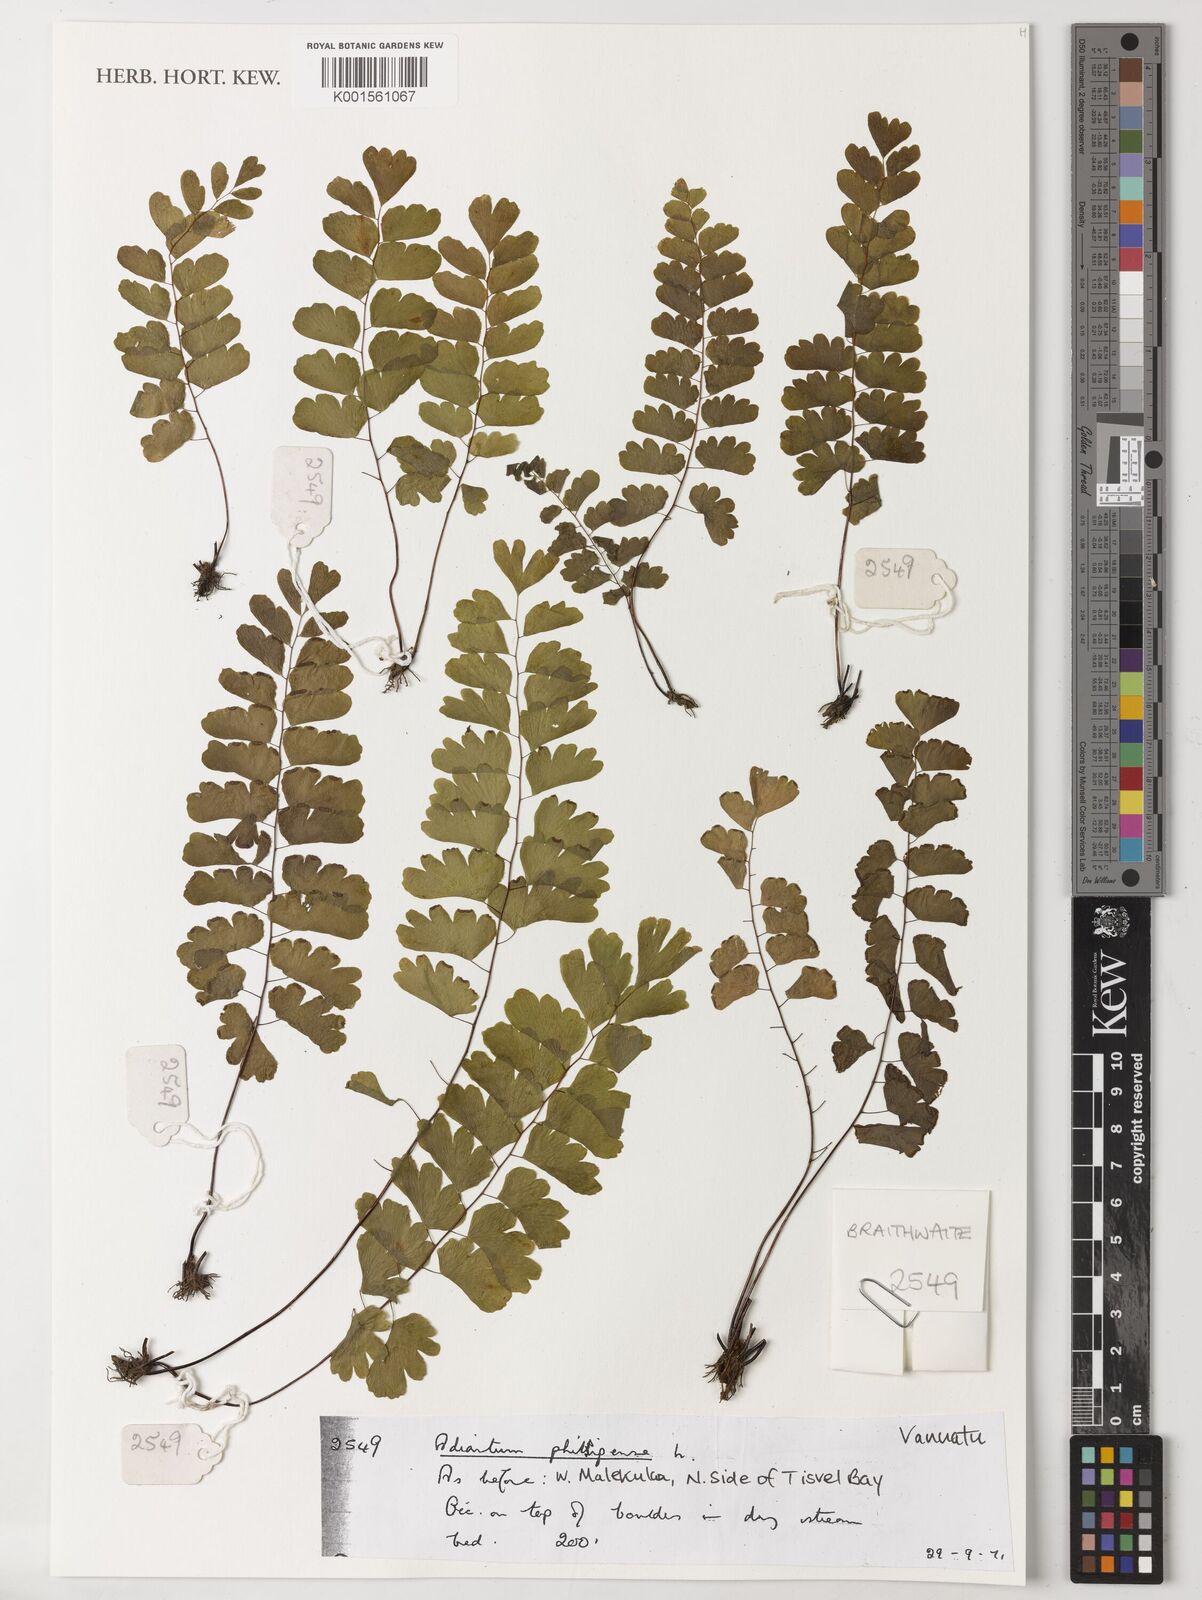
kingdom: Plantae
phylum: Tracheophyta
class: Polypodiopsida
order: Polypodiales
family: Pteridaceae
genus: Adiantum
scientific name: Adiantum philippense
